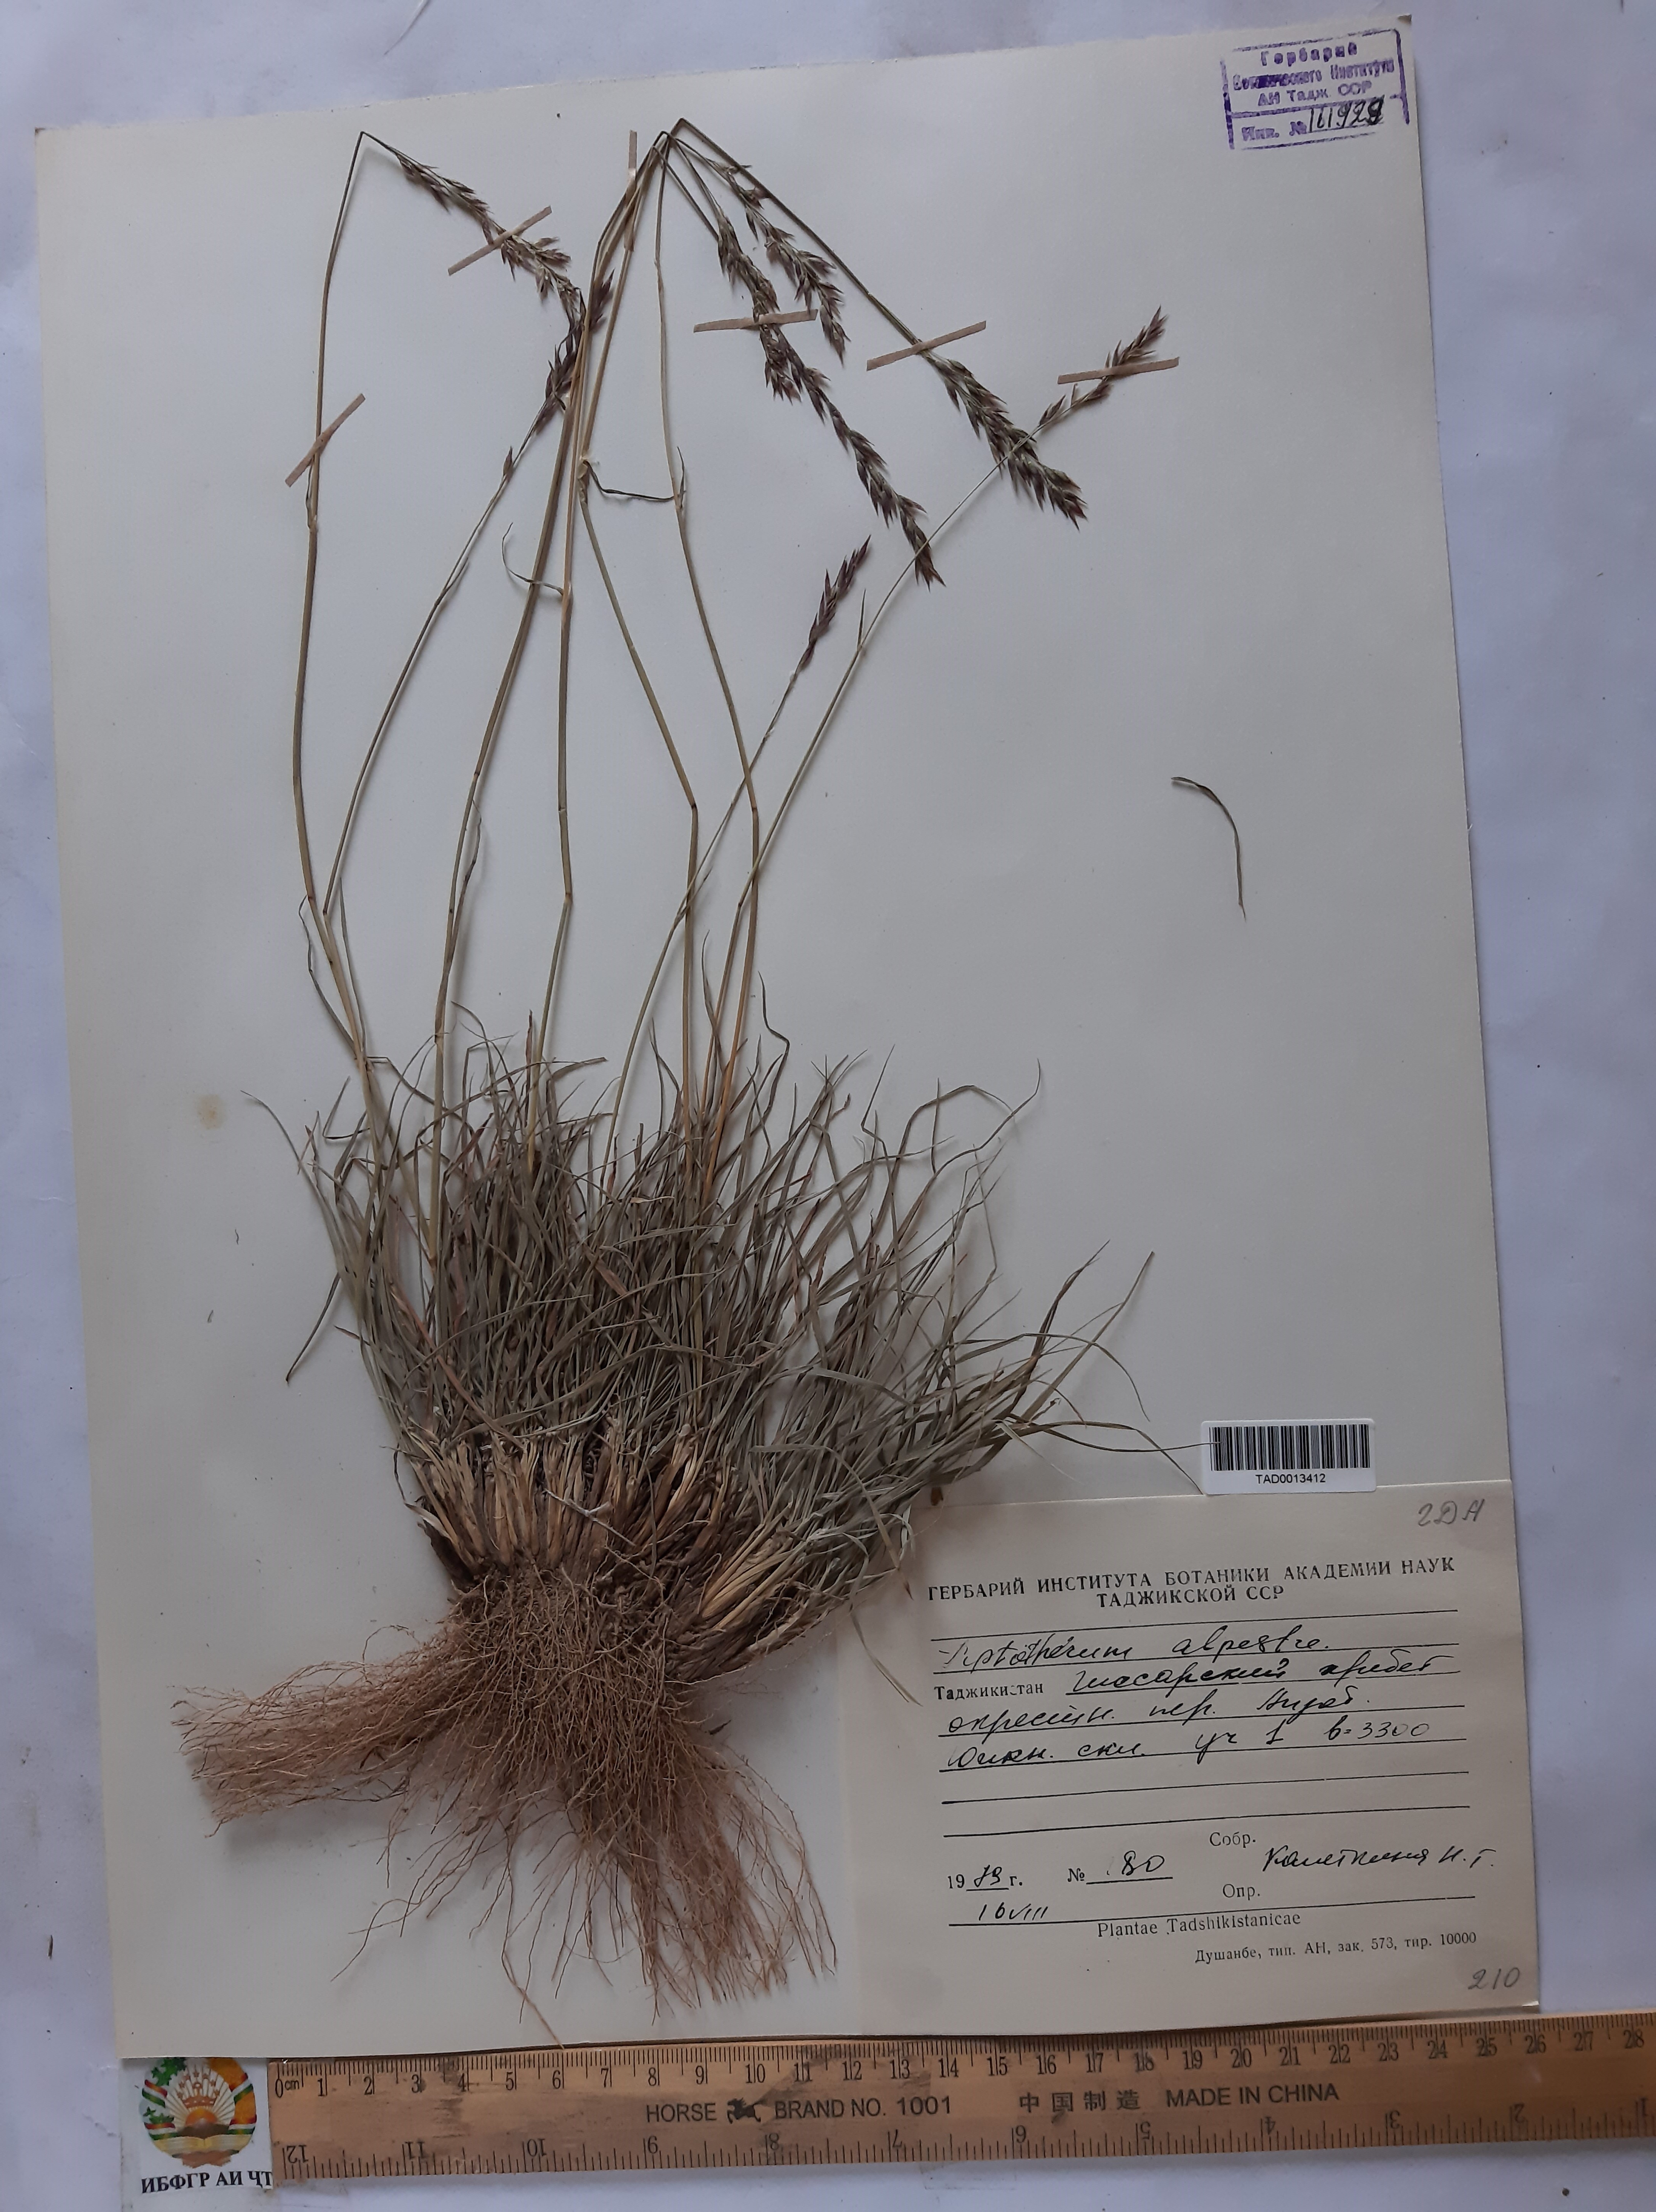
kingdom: Plantae
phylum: Tracheophyta
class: Liliopsida
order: Poales
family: Poaceae
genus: Piptatherum
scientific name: Piptatherum alpestre
